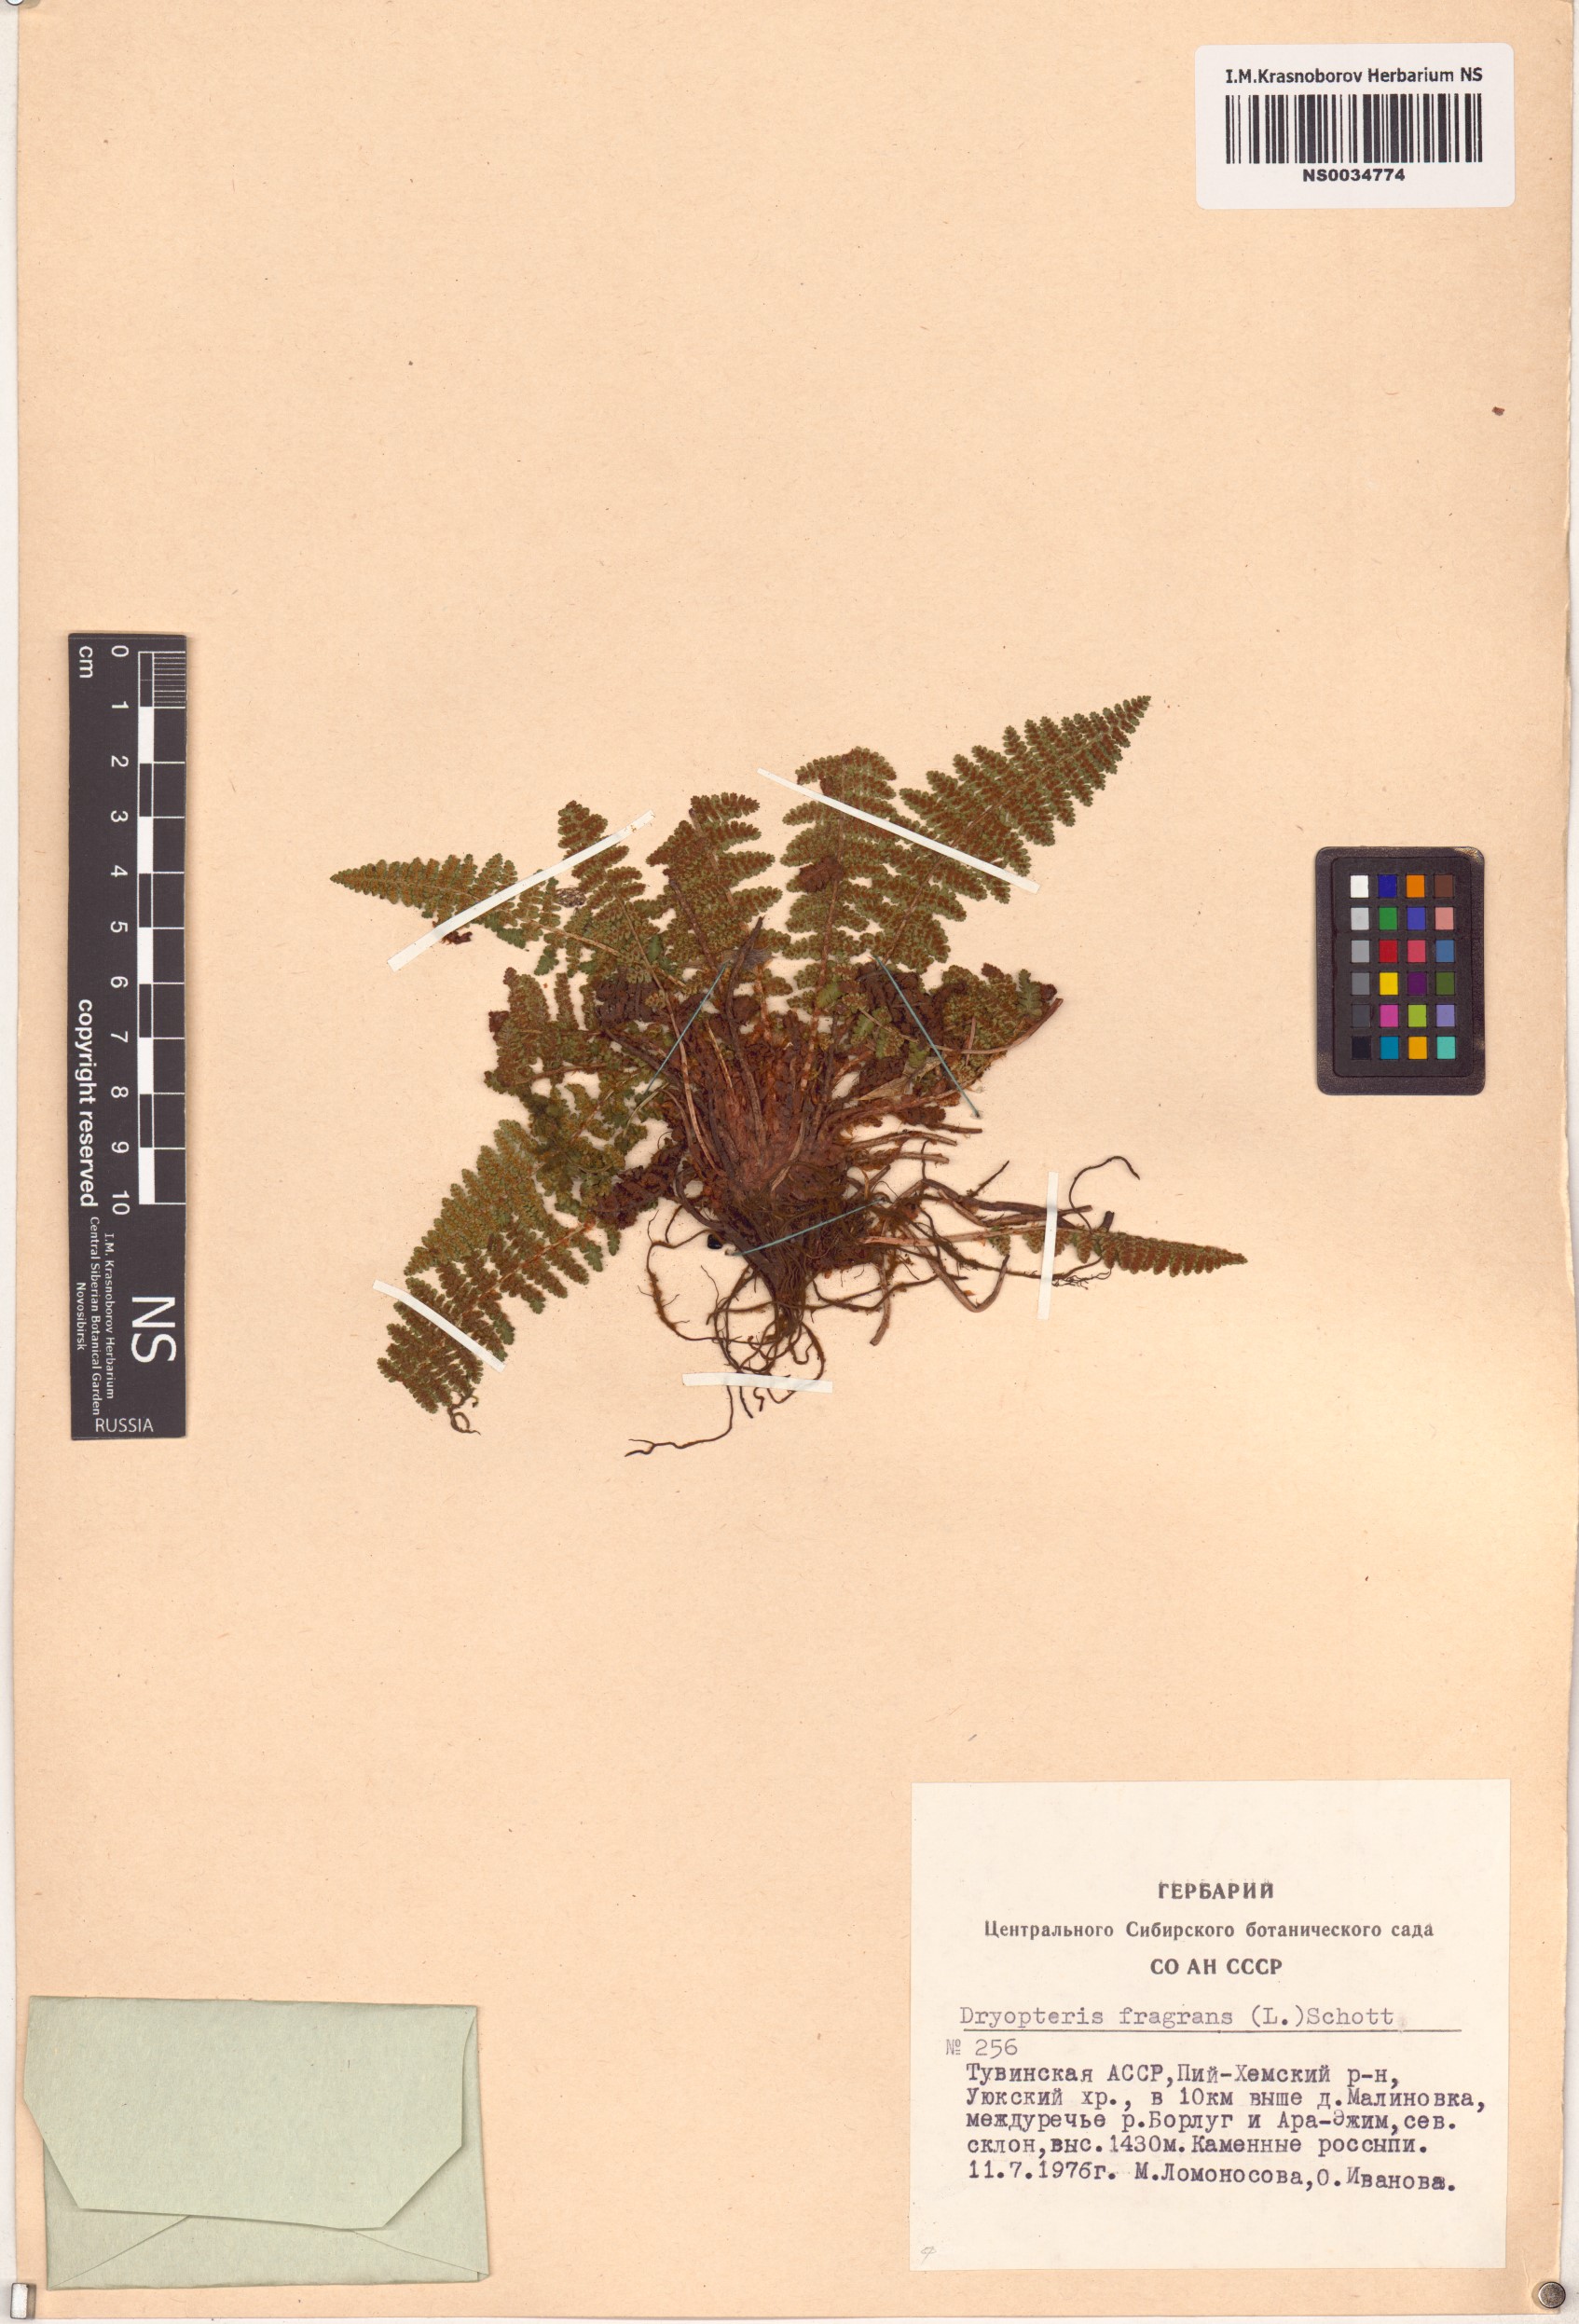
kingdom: Plantae
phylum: Tracheophyta
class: Polypodiopsida
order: Polypodiales
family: Dryopteridaceae
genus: Dryopteris
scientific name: Dryopteris fragrans
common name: Fragrant wood fern
